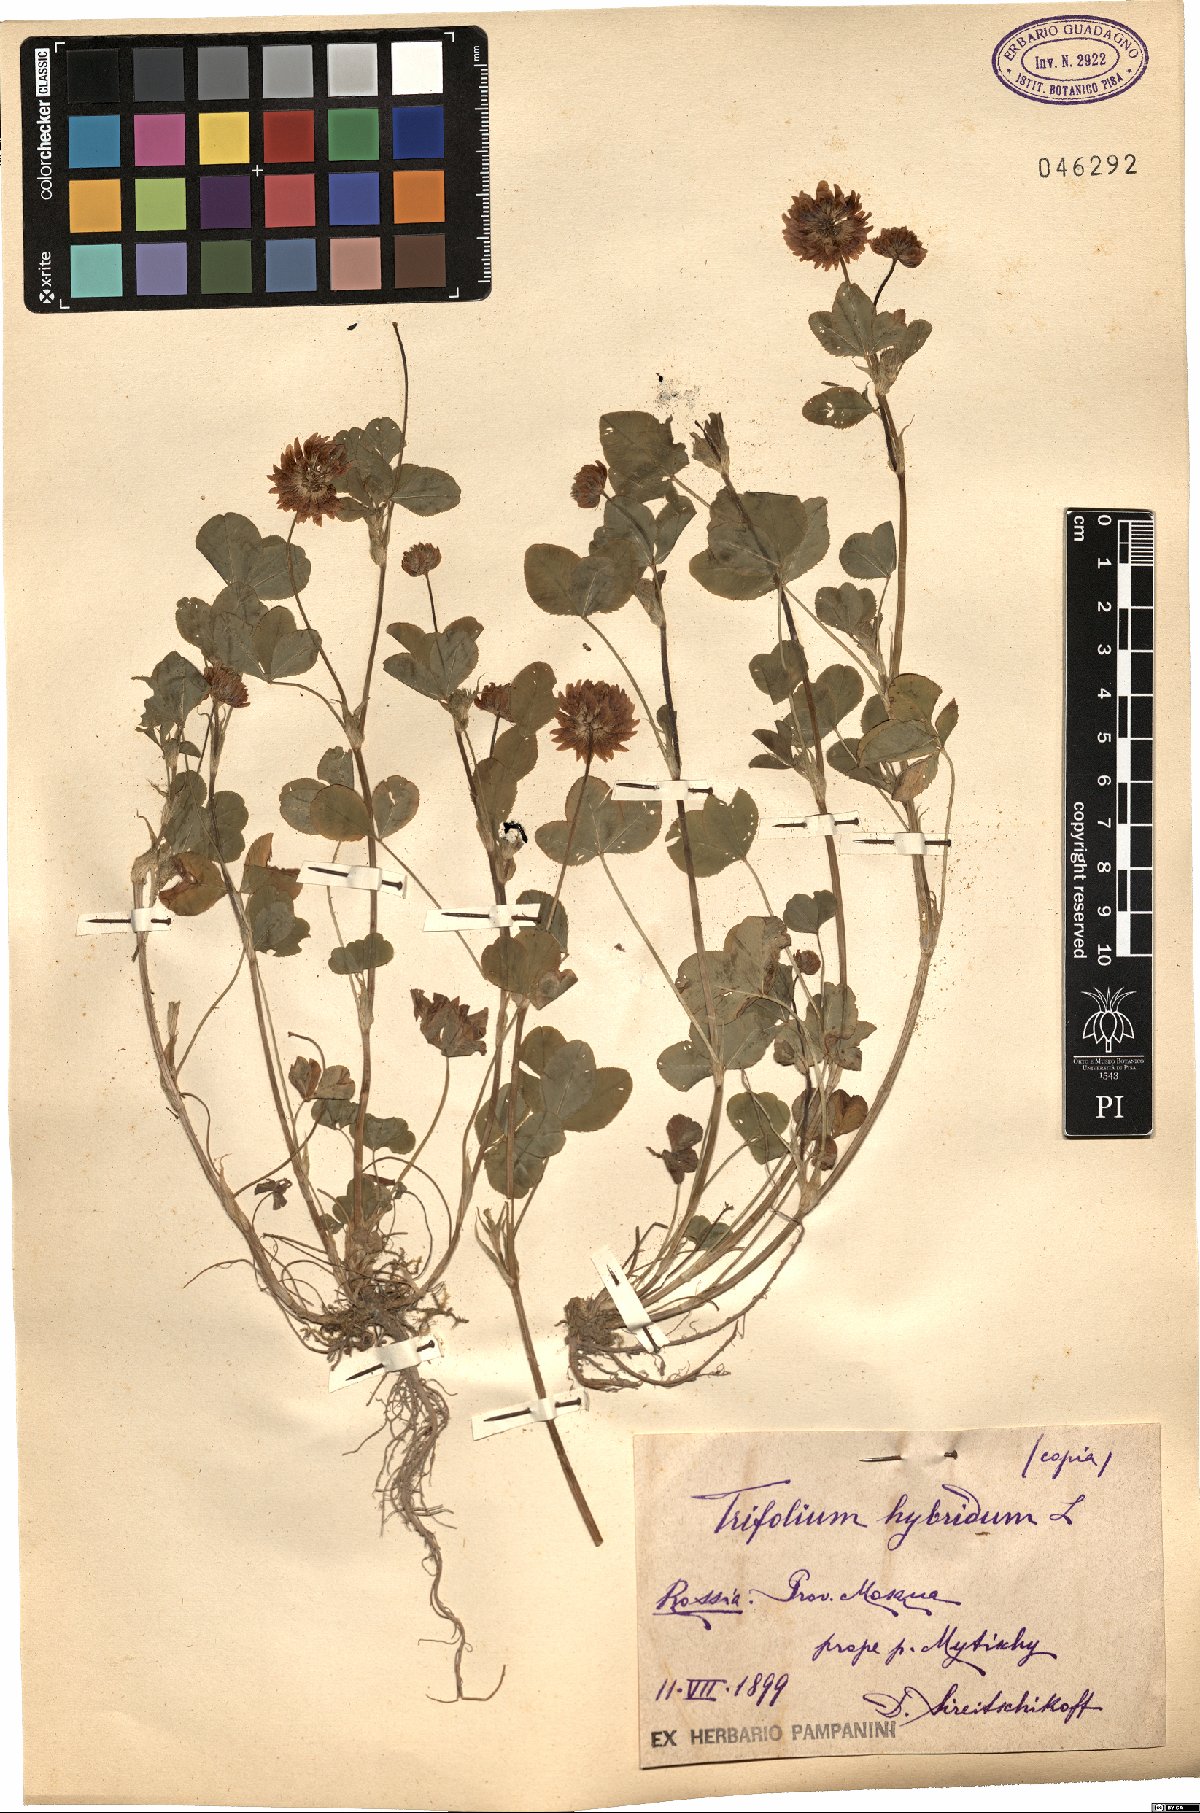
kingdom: Plantae
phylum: Tracheophyta
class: Magnoliopsida
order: Fabales
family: Fabaceae
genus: Trifolium
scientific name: Trifolium hybridum
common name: Alsike clover
